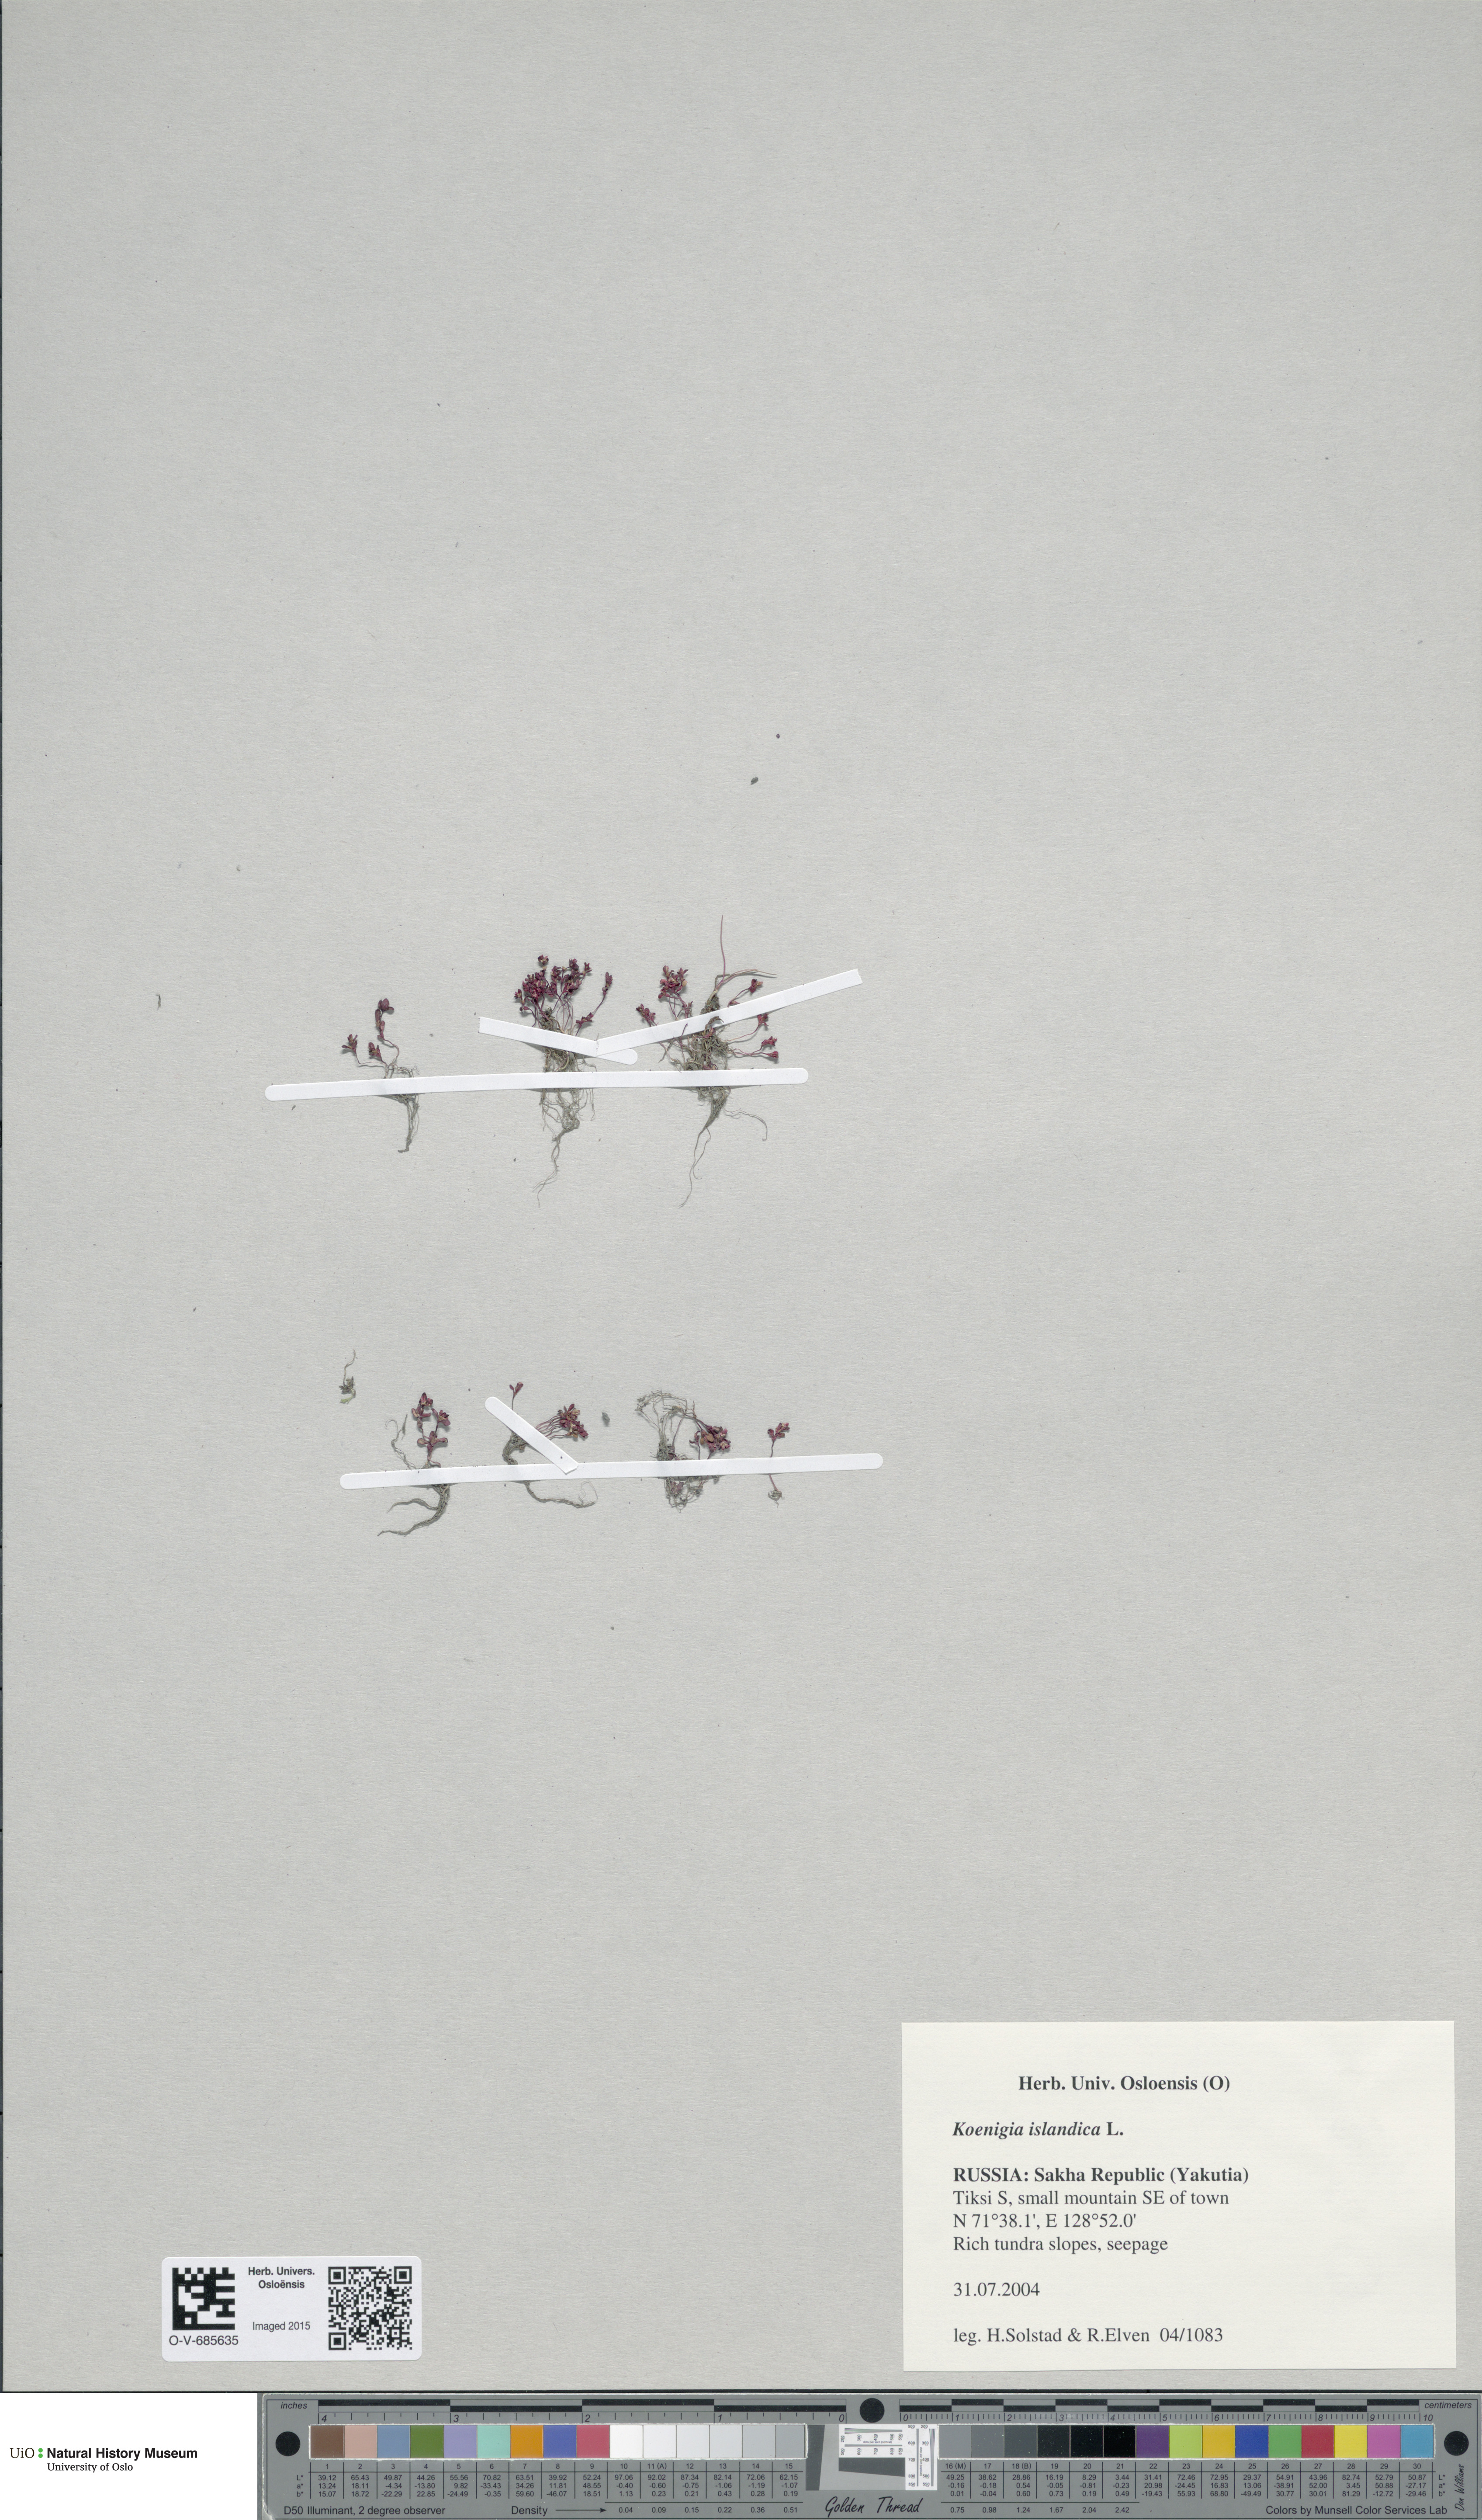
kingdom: Plantae
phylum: Tracheophyta
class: Magnoliopsida
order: Caryophyllales
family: Polygonaceae
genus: Koenigia
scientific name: Koenigia islandica
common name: Iceland-purslane
